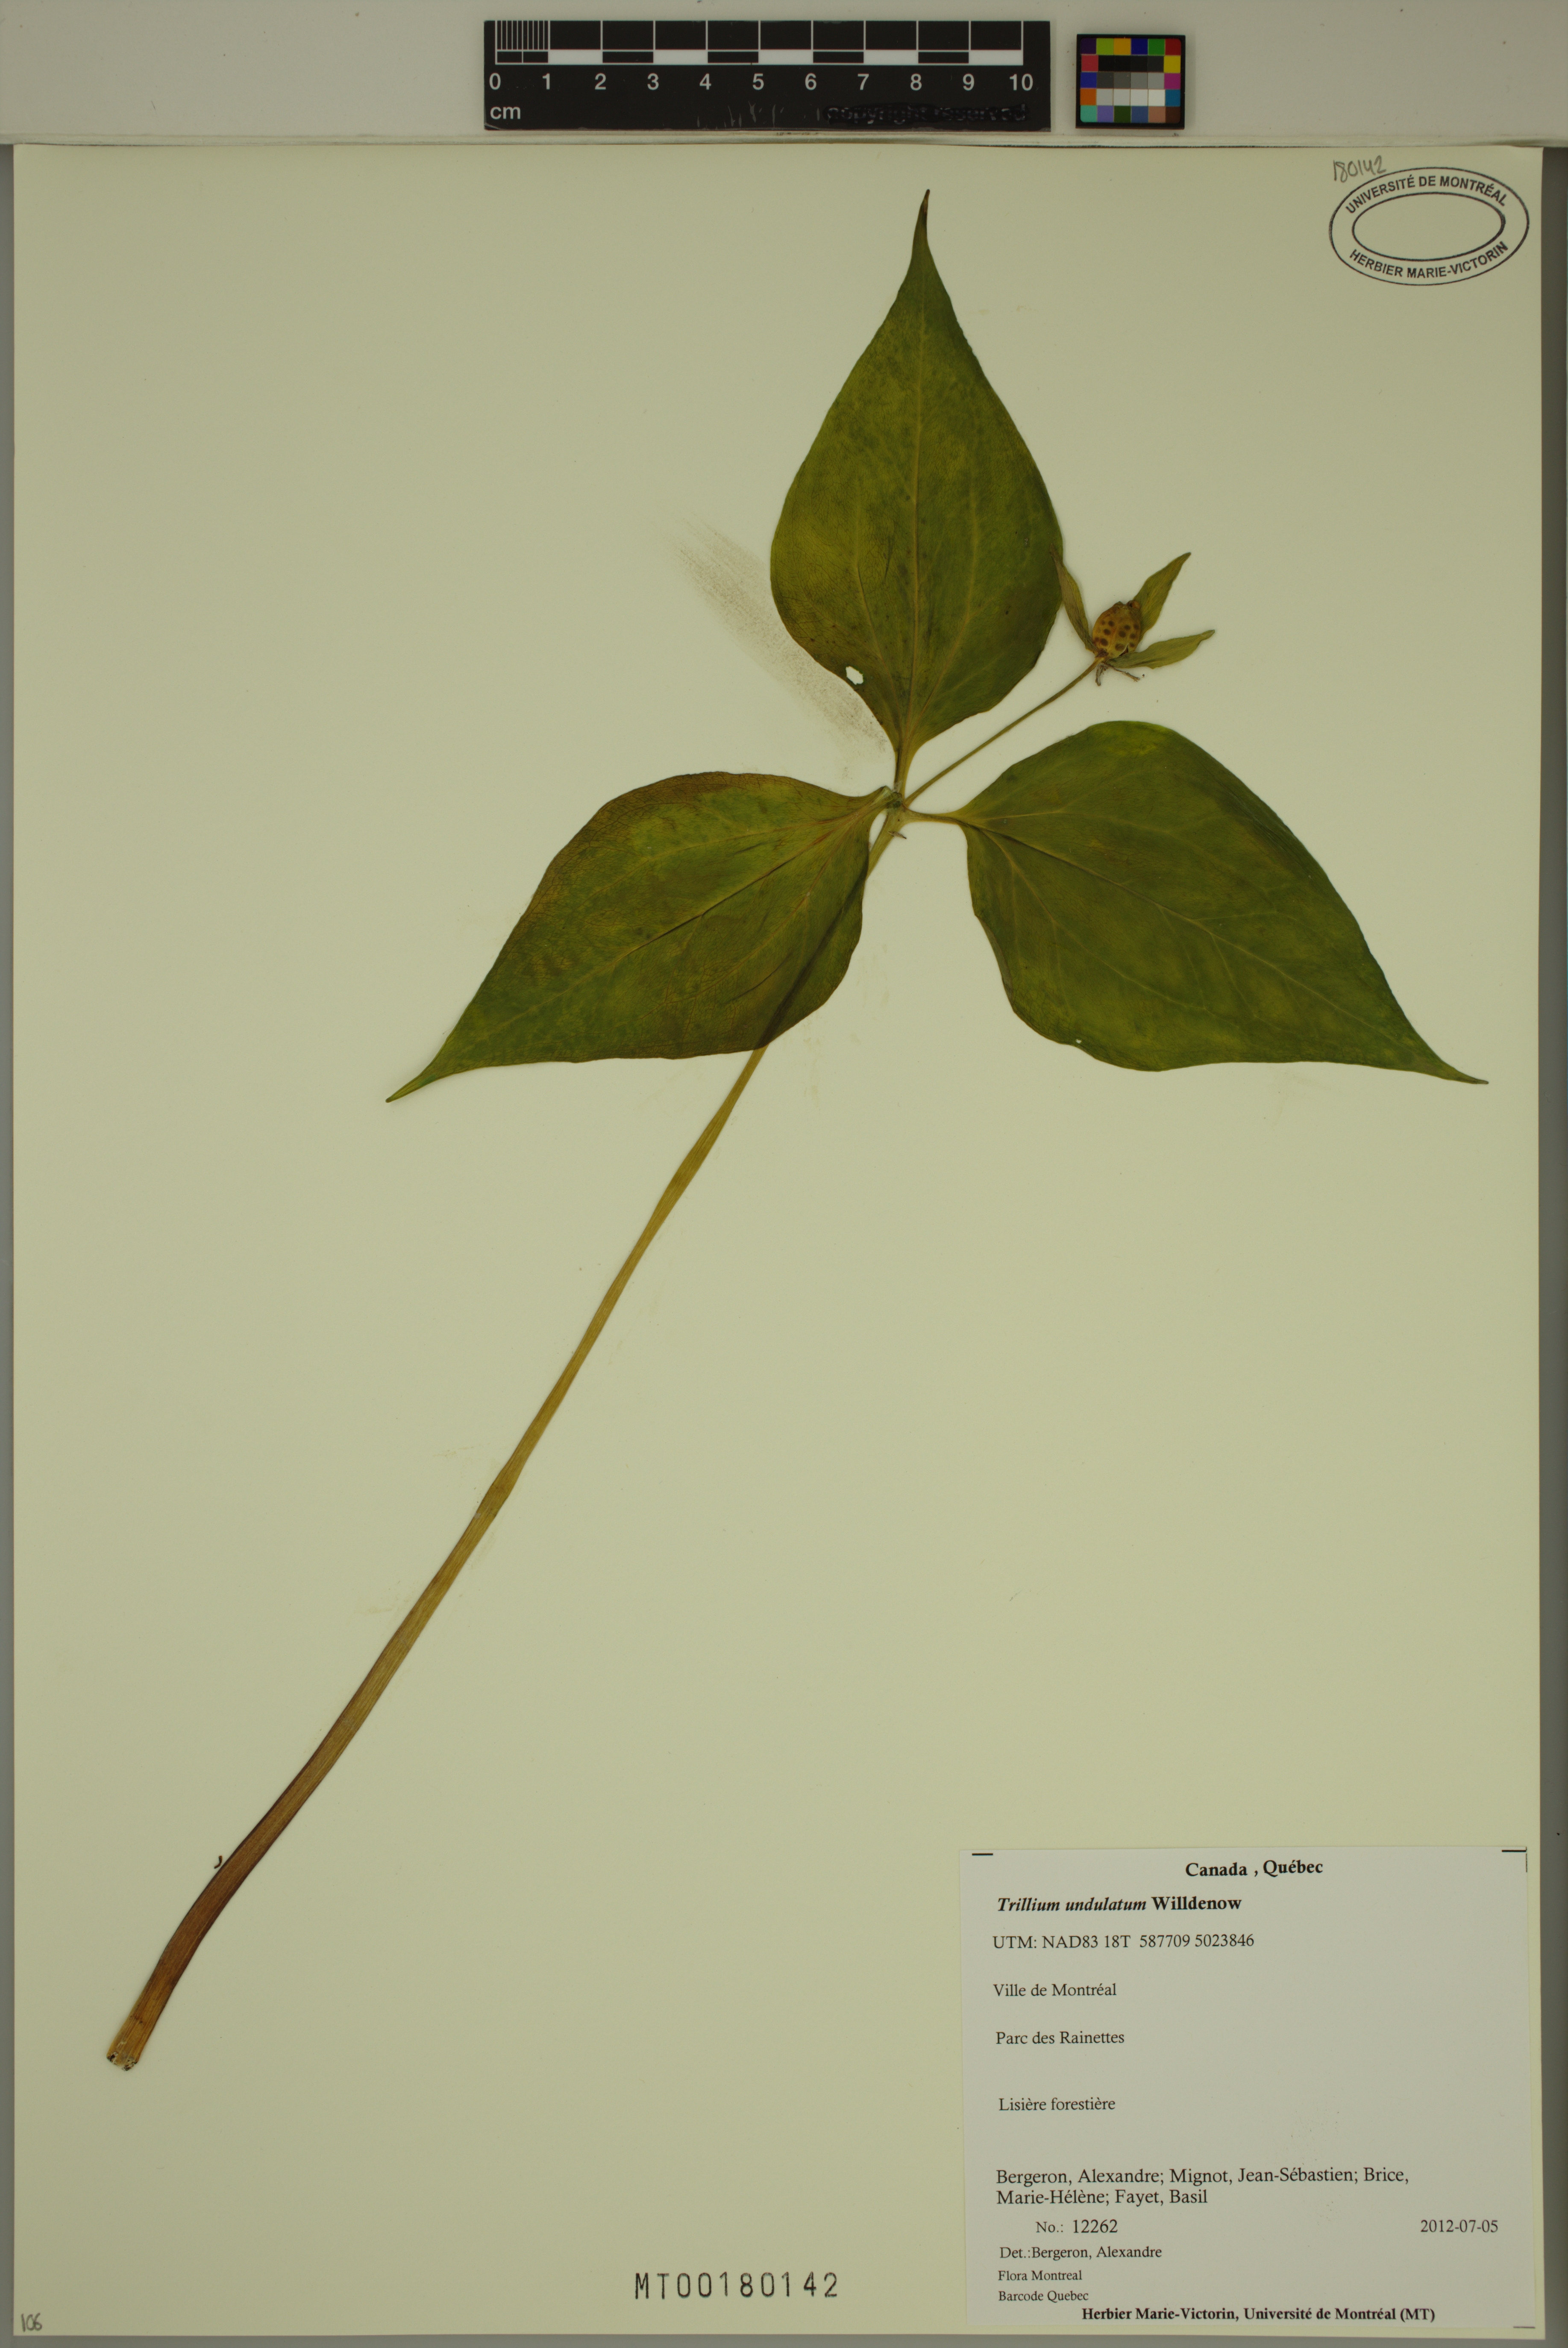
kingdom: Plantae
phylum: Tracheophyta
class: Liliopsida
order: Liliales
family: Melanthiaceae
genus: Trillium
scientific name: Trillium undulatum
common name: Paint trillium
